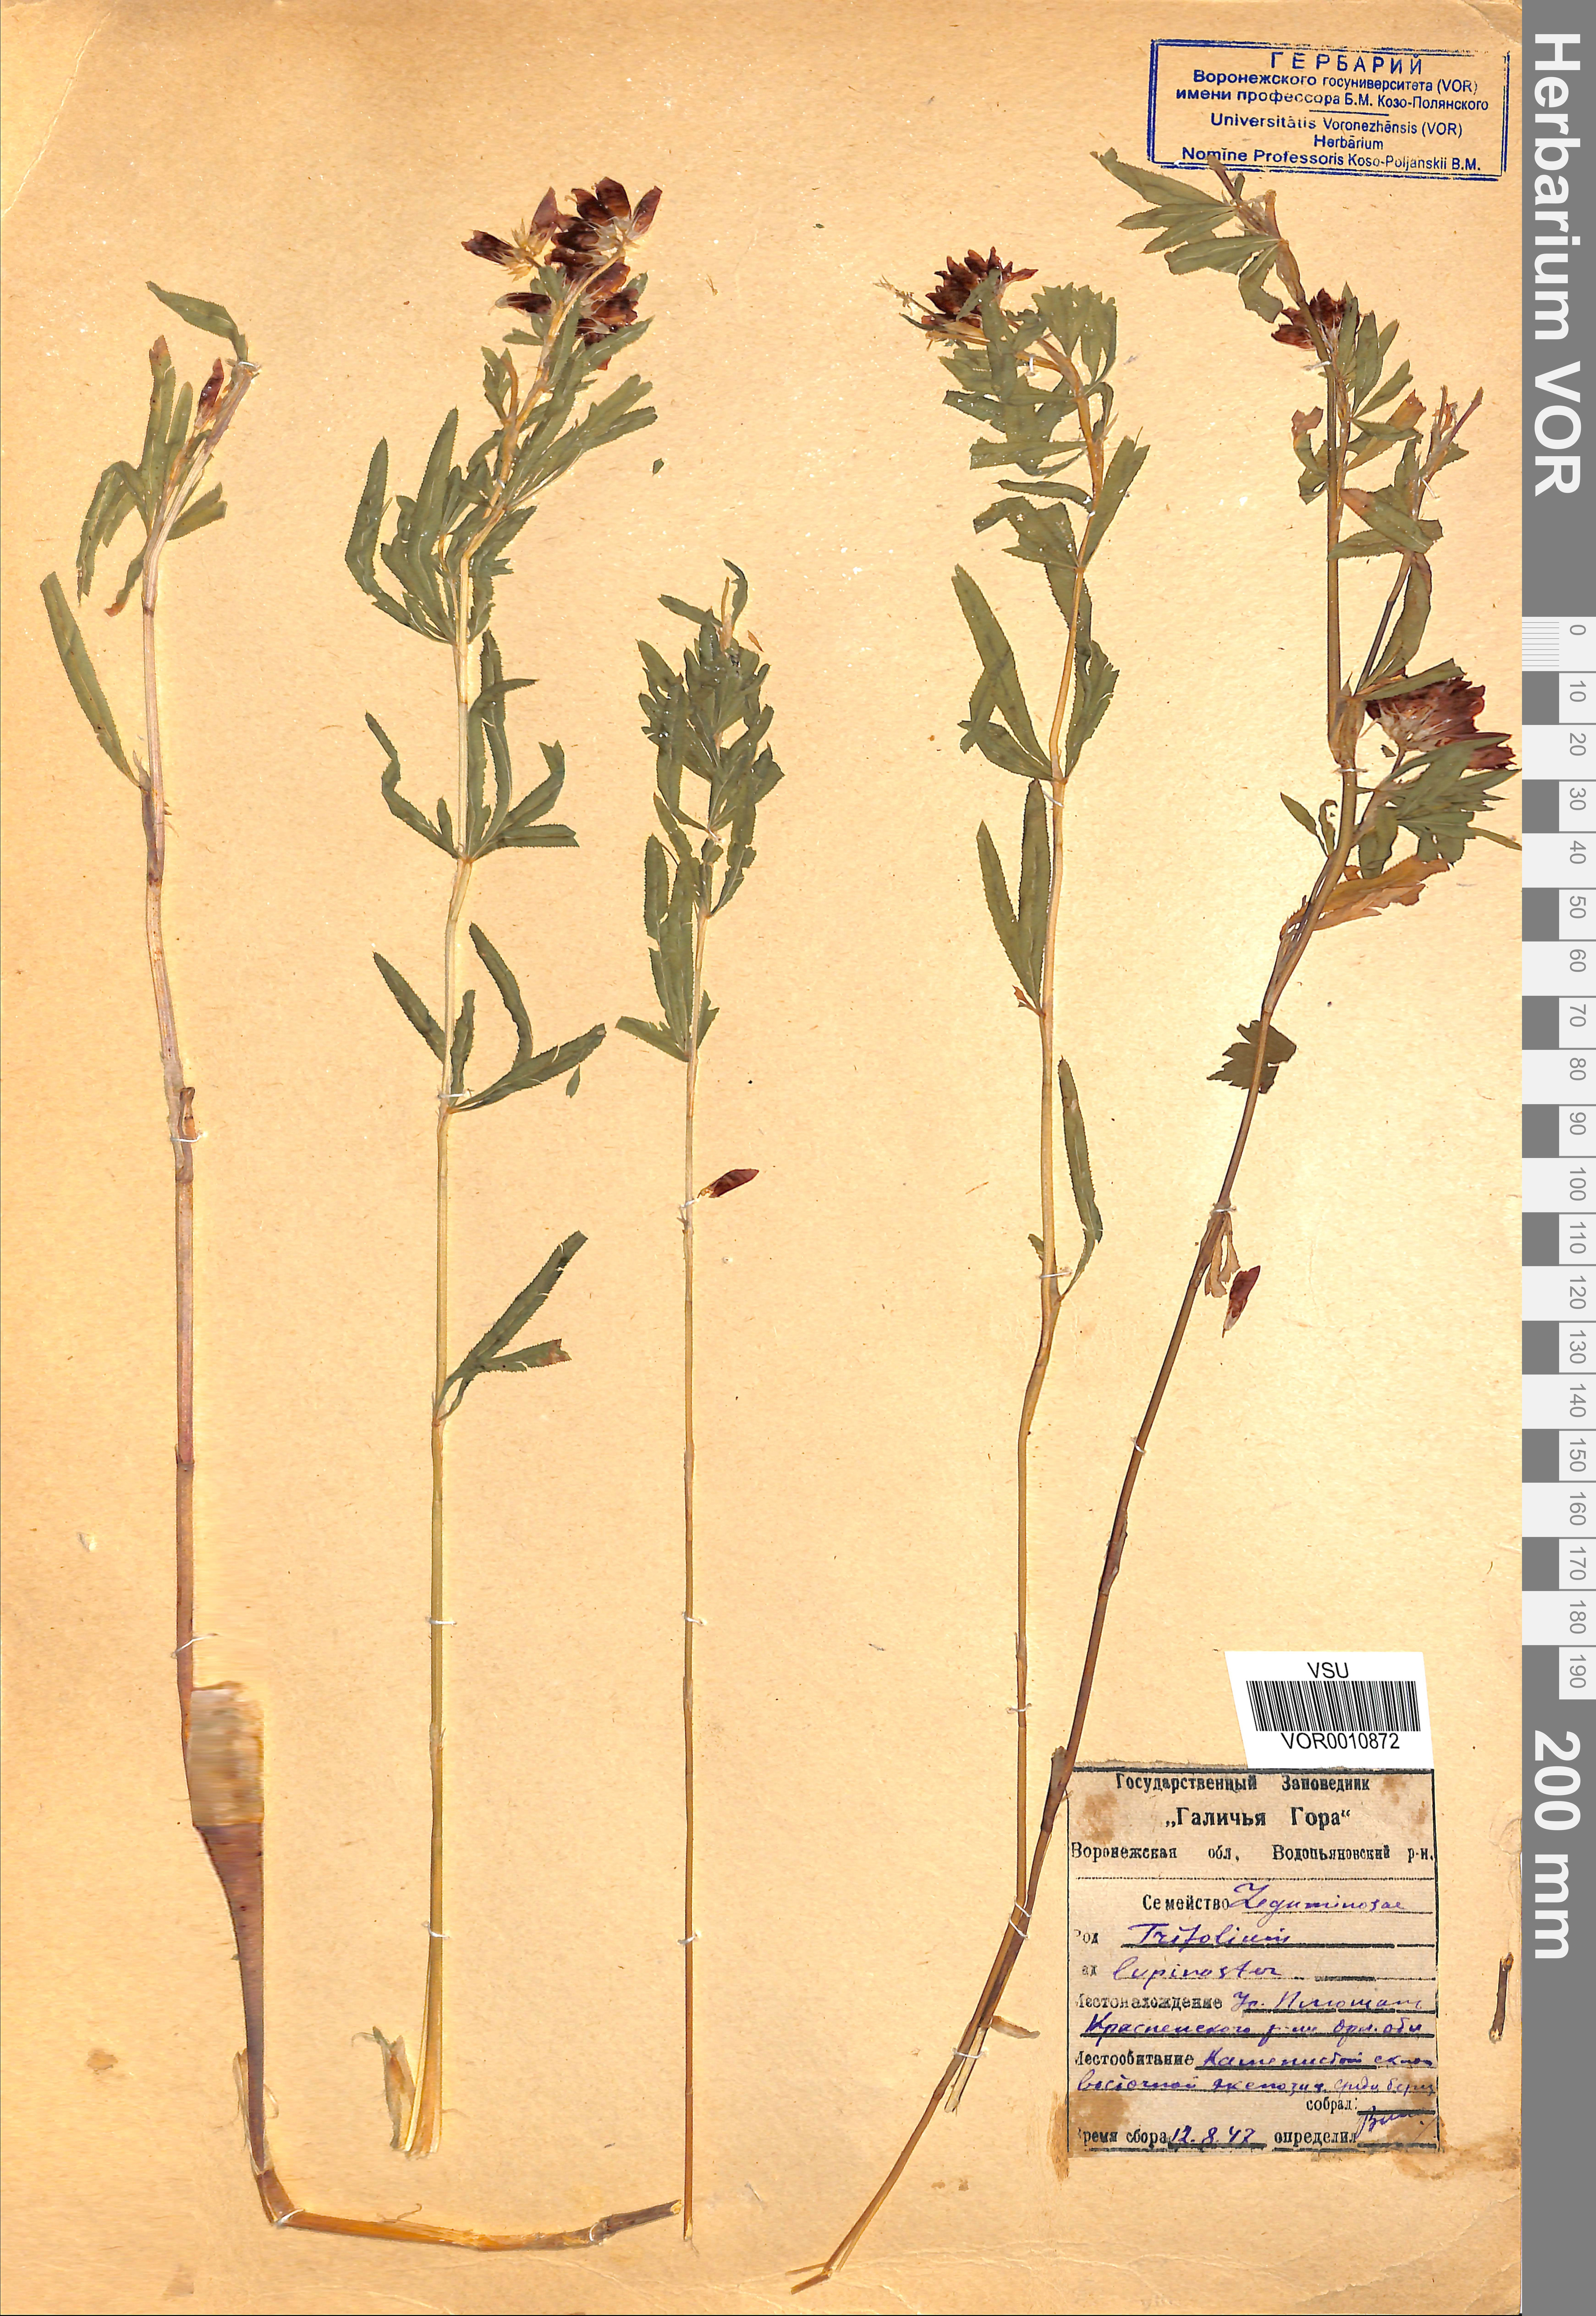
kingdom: Plantae
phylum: Tracheophyta
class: Magnoliopsida
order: Fabales
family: Fabaceae
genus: Trifolium
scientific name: Trifolium lupinaster
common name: Lupine clover
